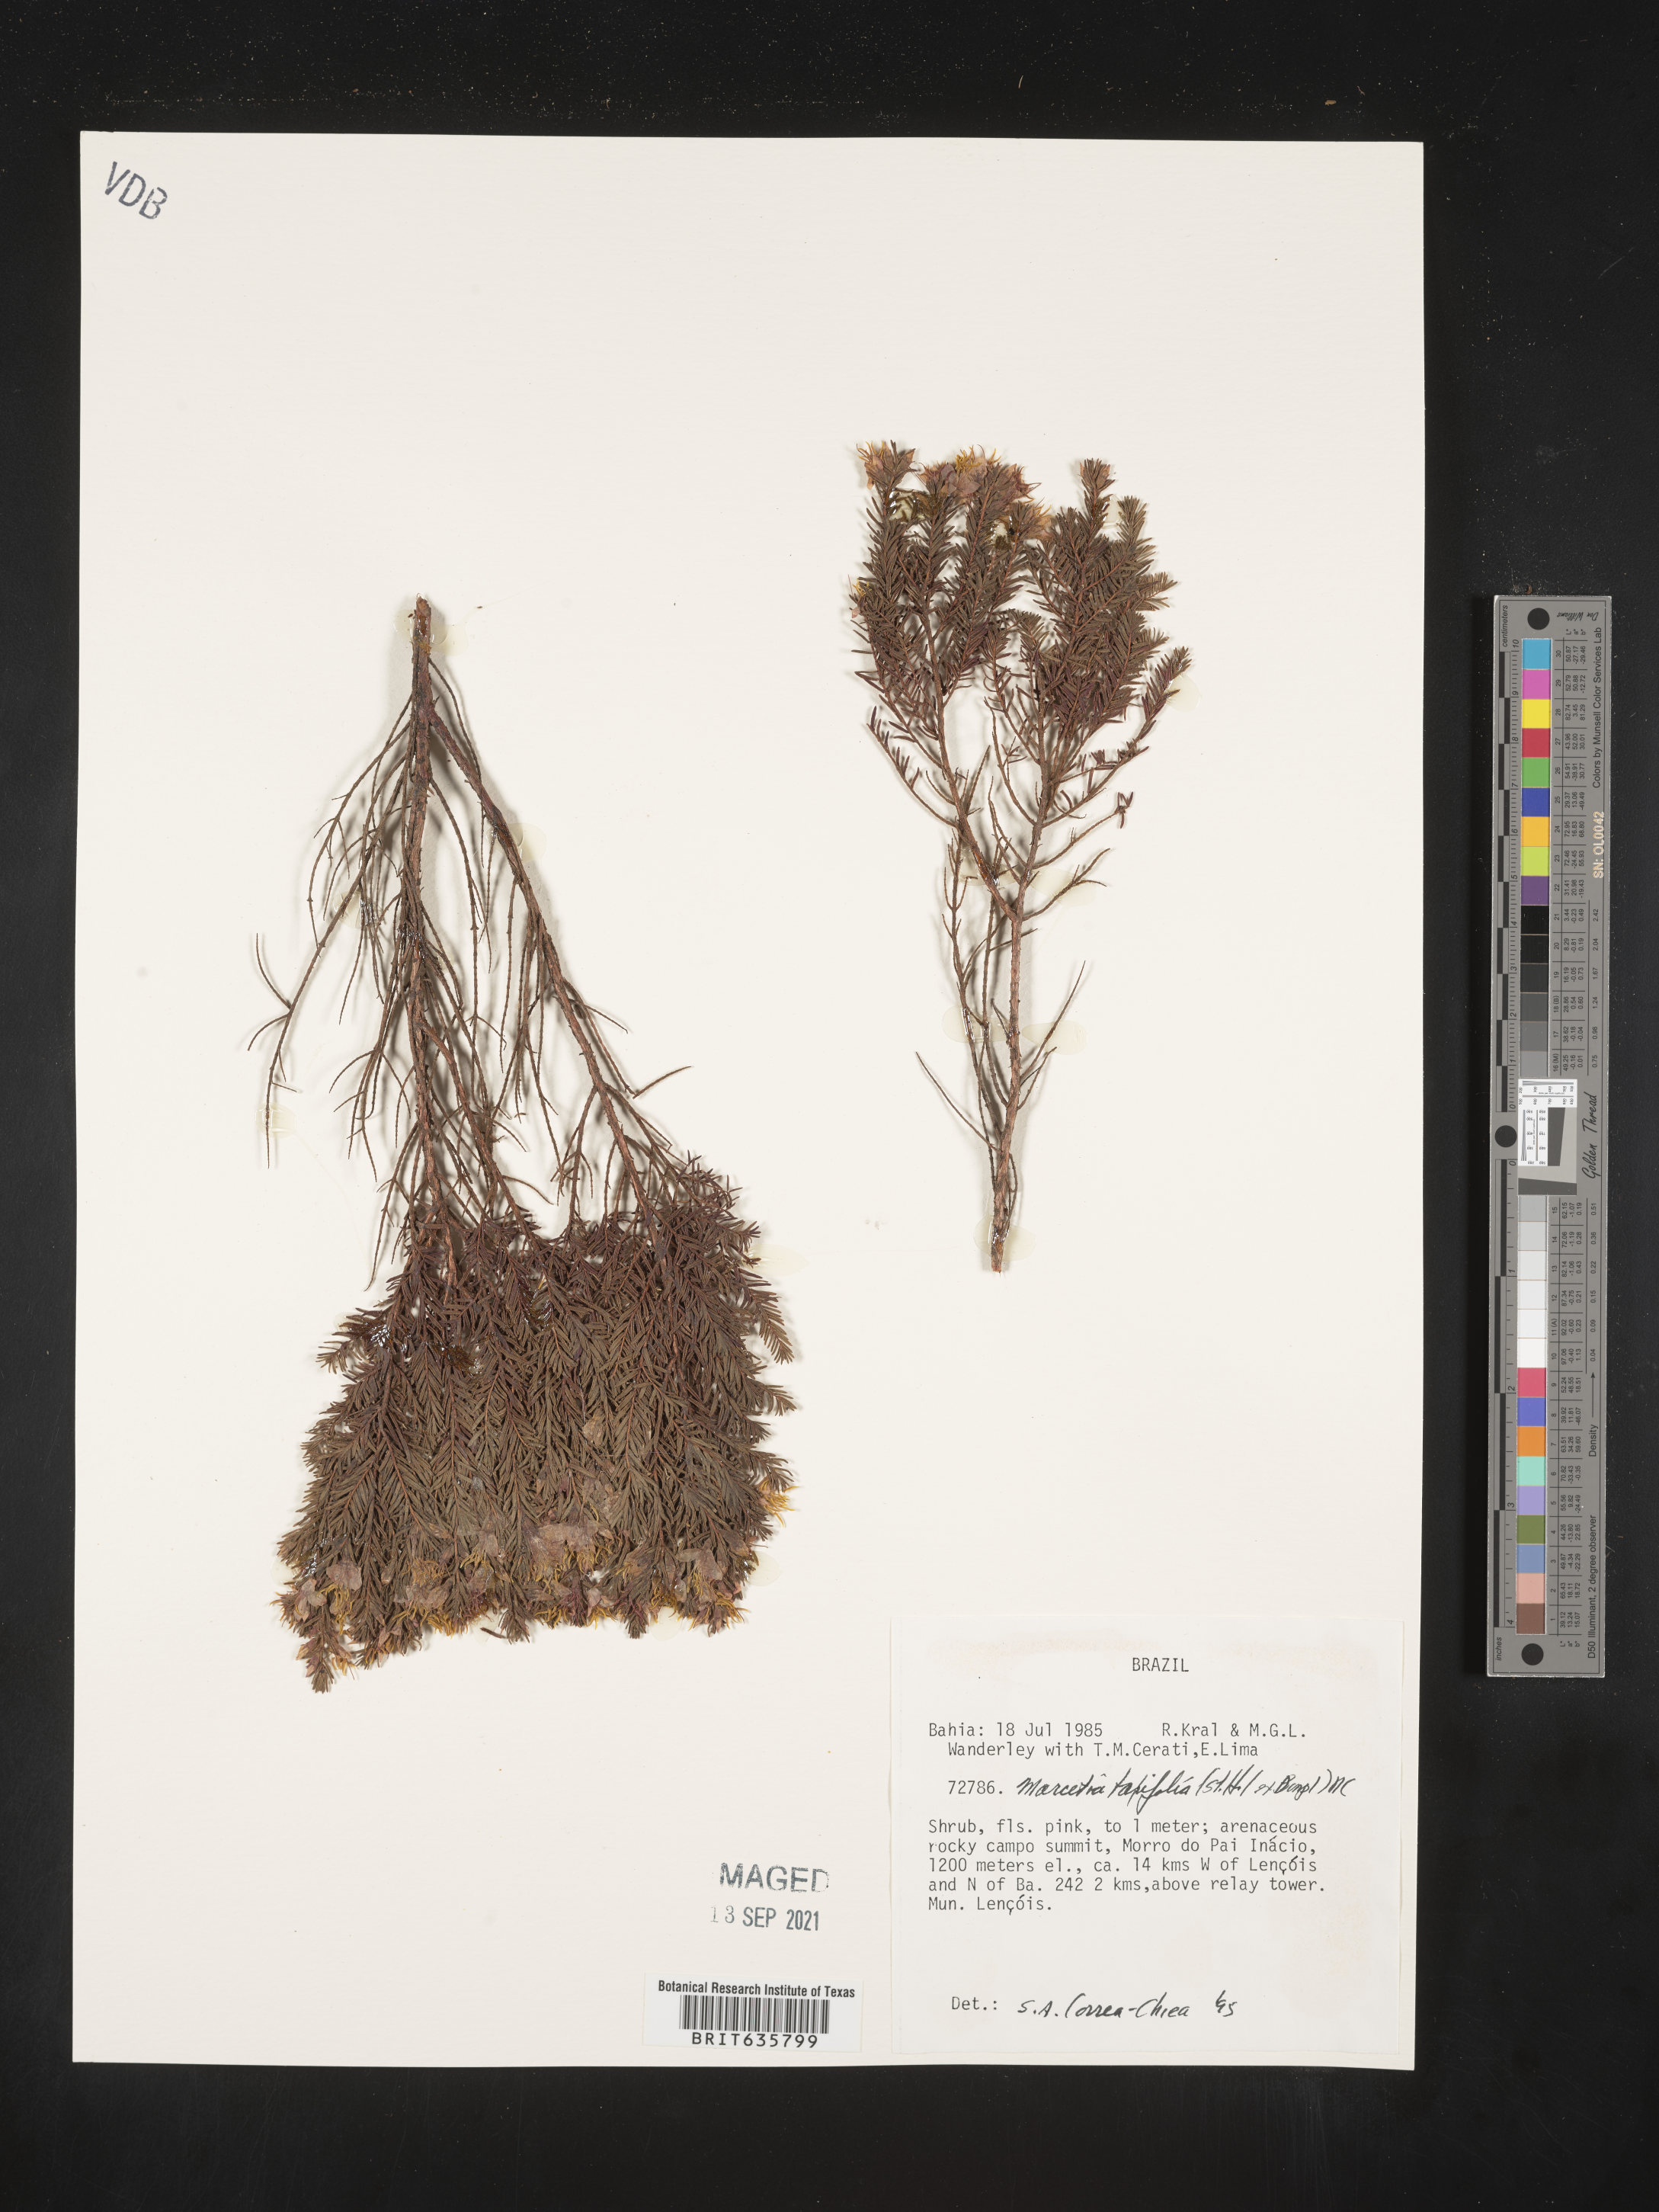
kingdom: Plantae
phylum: Tracheophyta
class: Magnoliopsida
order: Myrtales
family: Melastomataceae
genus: Marcetia
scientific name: Marcetia
